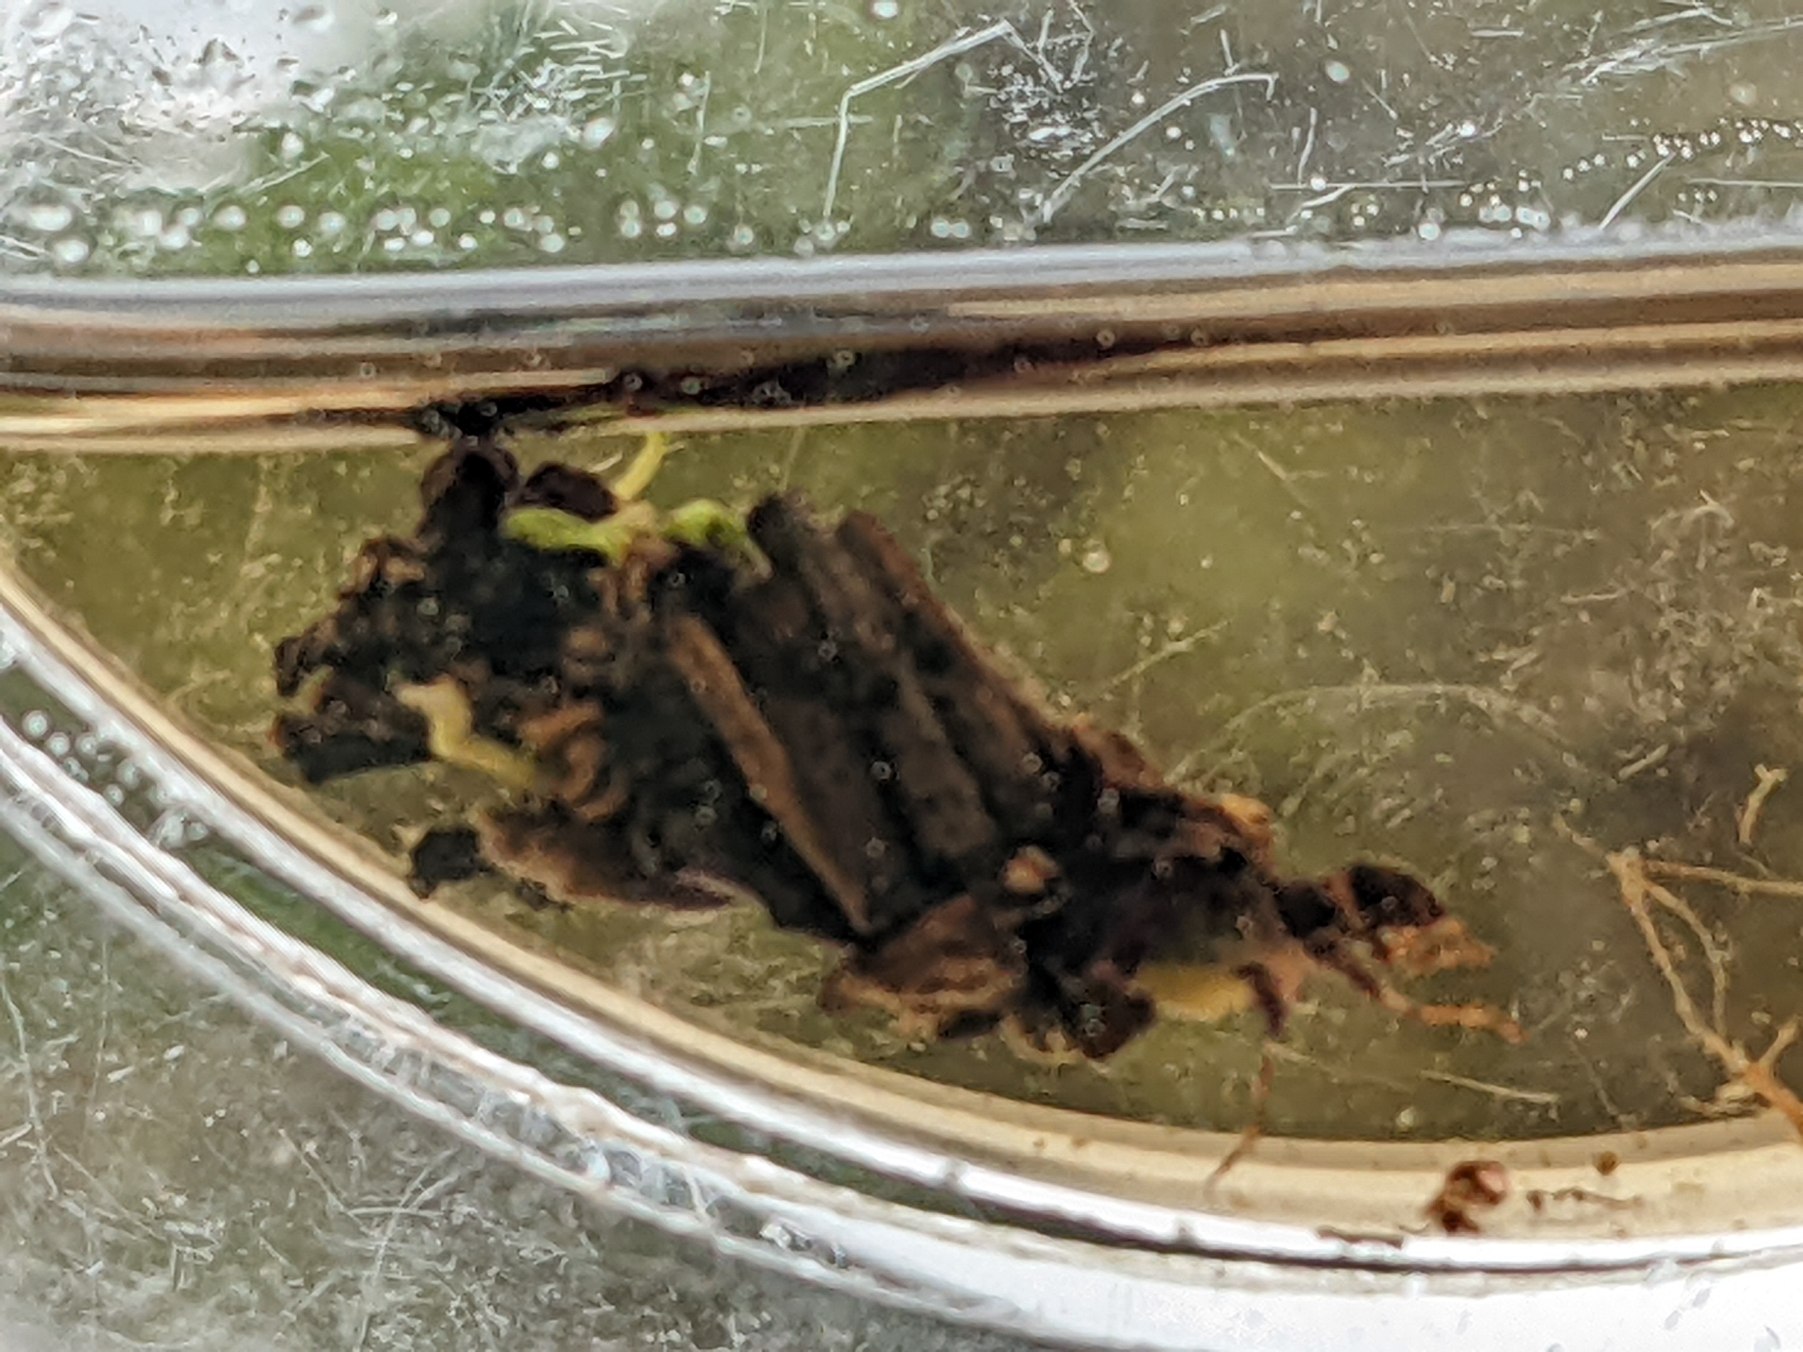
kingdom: Animalia
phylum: Arthropoda
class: Insecta
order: Trichoptera
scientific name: Trichoptera
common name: Vårfluer
